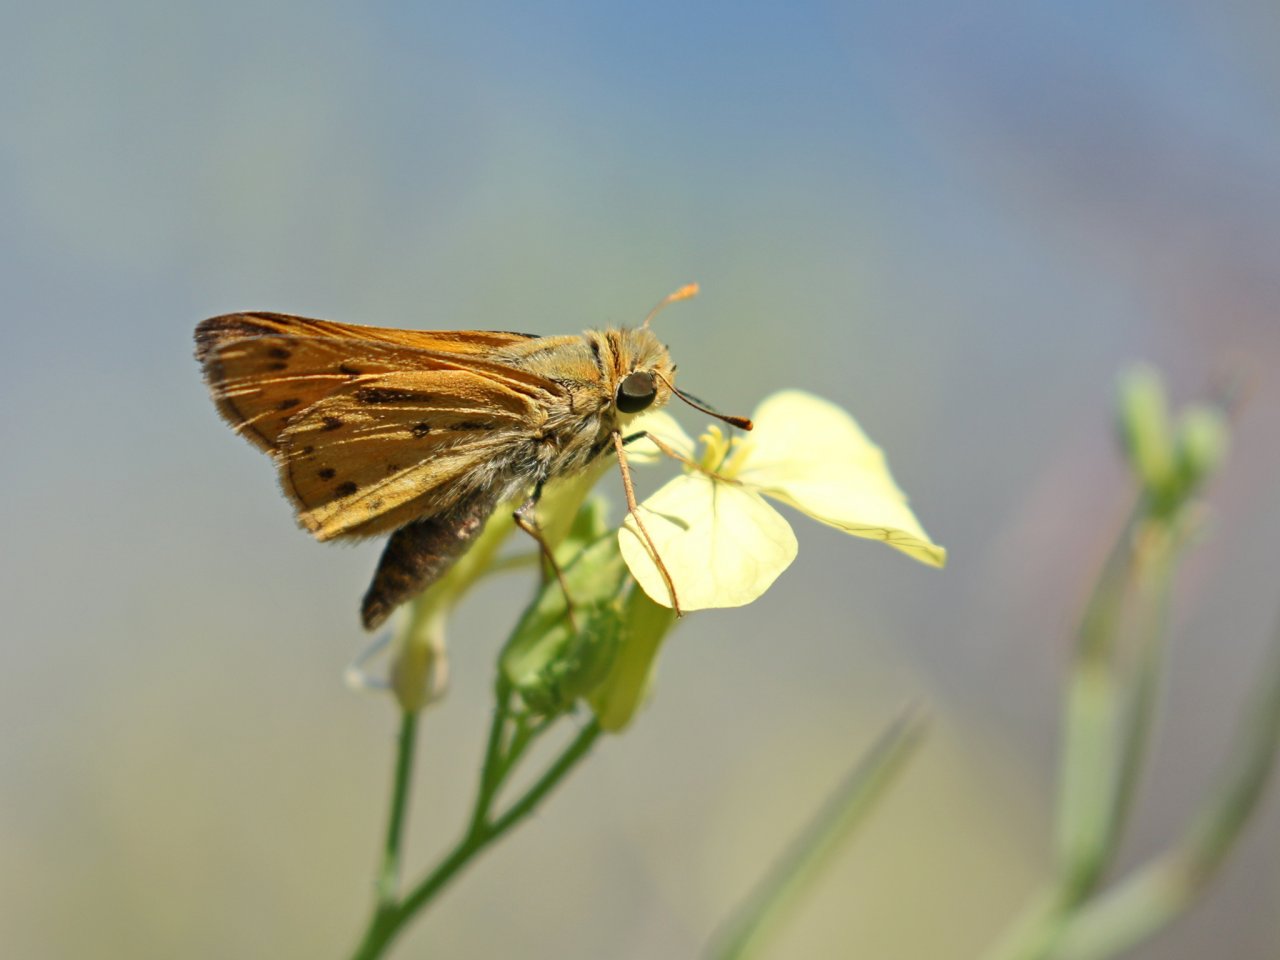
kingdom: Animalia
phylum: Arthropoda
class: Insecta
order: Lepidoptera
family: Hesperiidae
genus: Hylephila
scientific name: Hylephila phyleus
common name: Fiery Skipper
